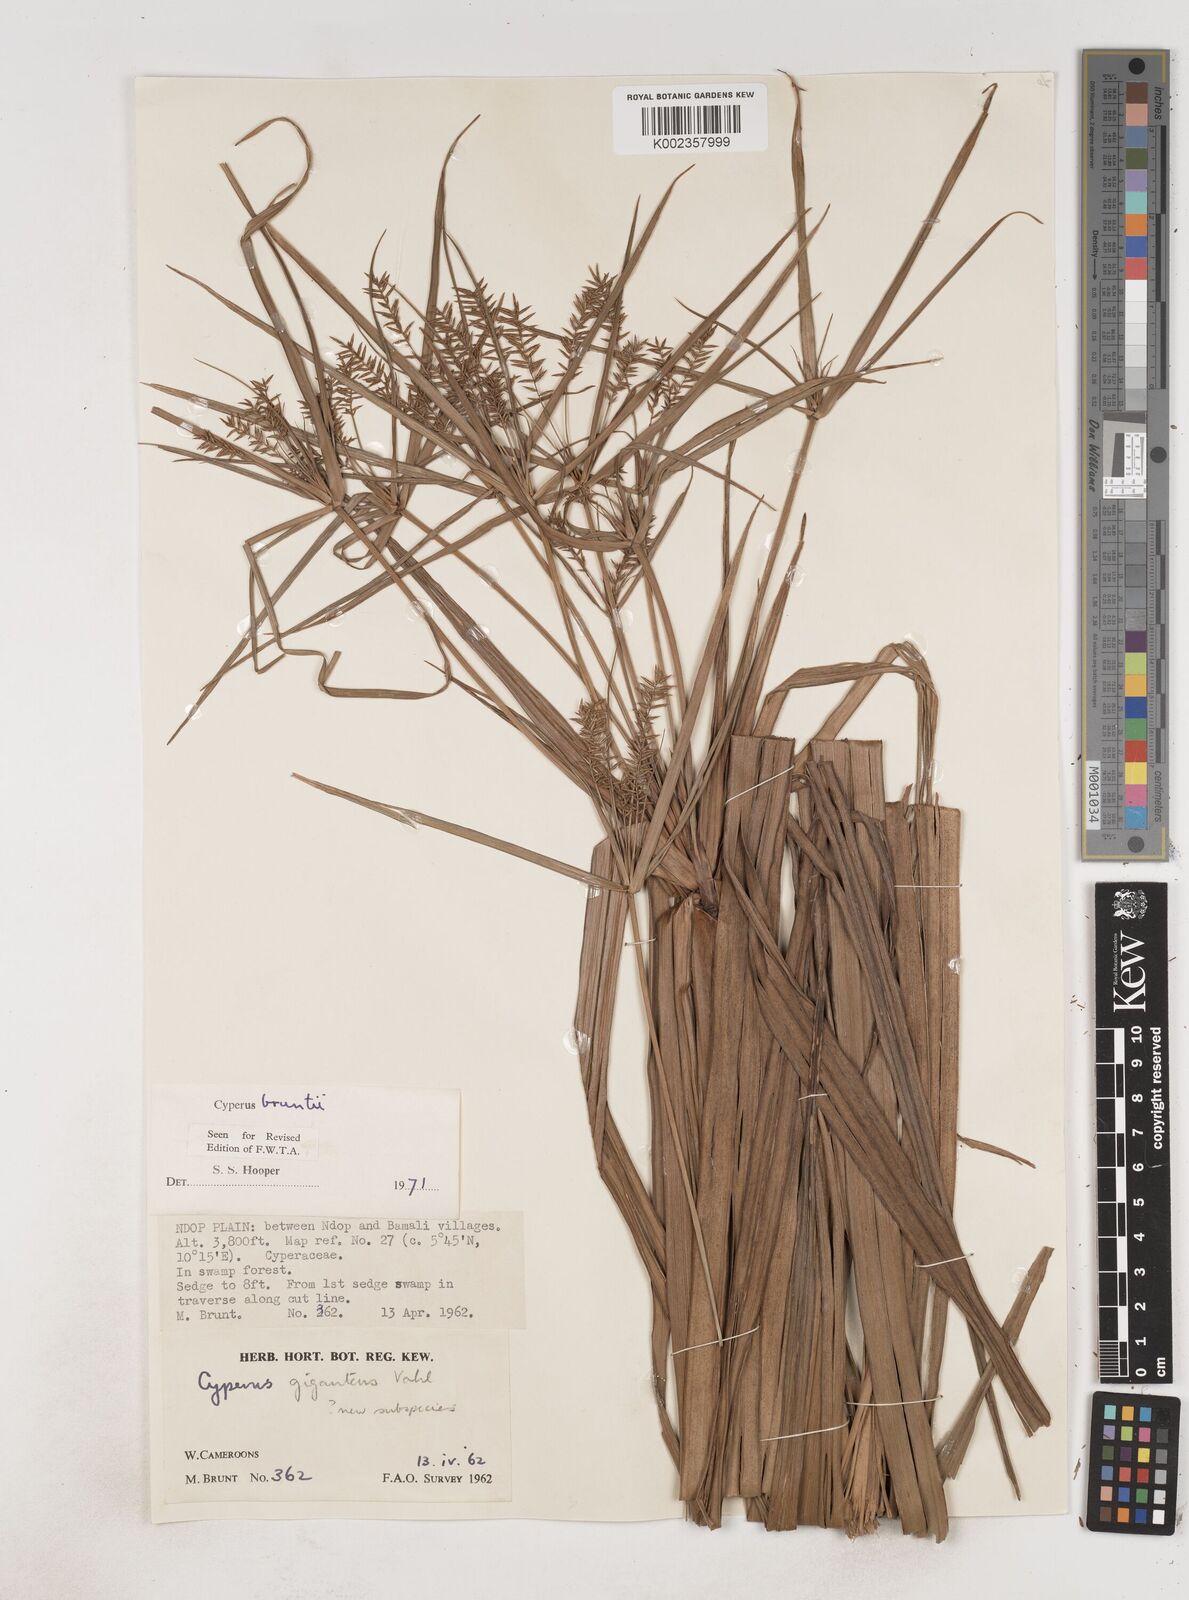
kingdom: Plantae
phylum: Tracheophyta
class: Liliopsida
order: Poales
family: Cyperaceae
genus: Cyperus
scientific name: Cyperus
